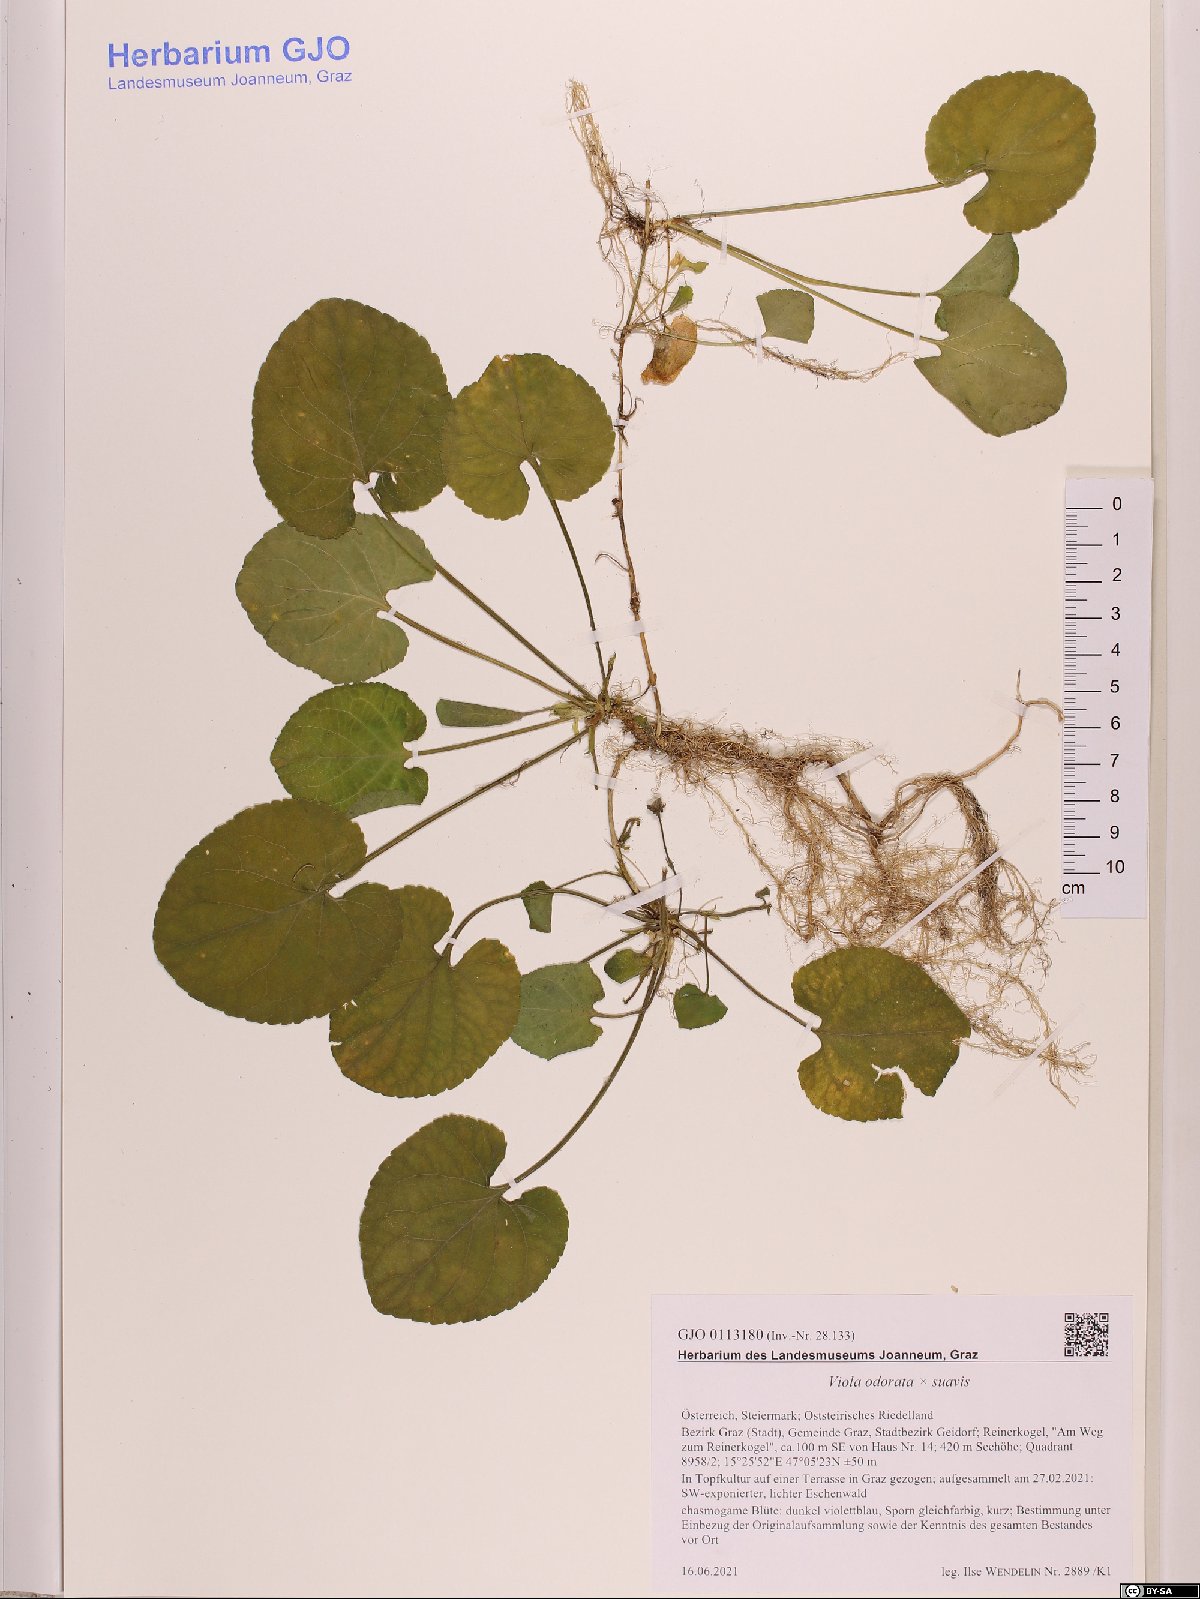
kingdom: Plantae
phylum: Tracheophyta
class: Magnoliopsida
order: Malpighiales
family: Violaceae
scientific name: Violaceae
